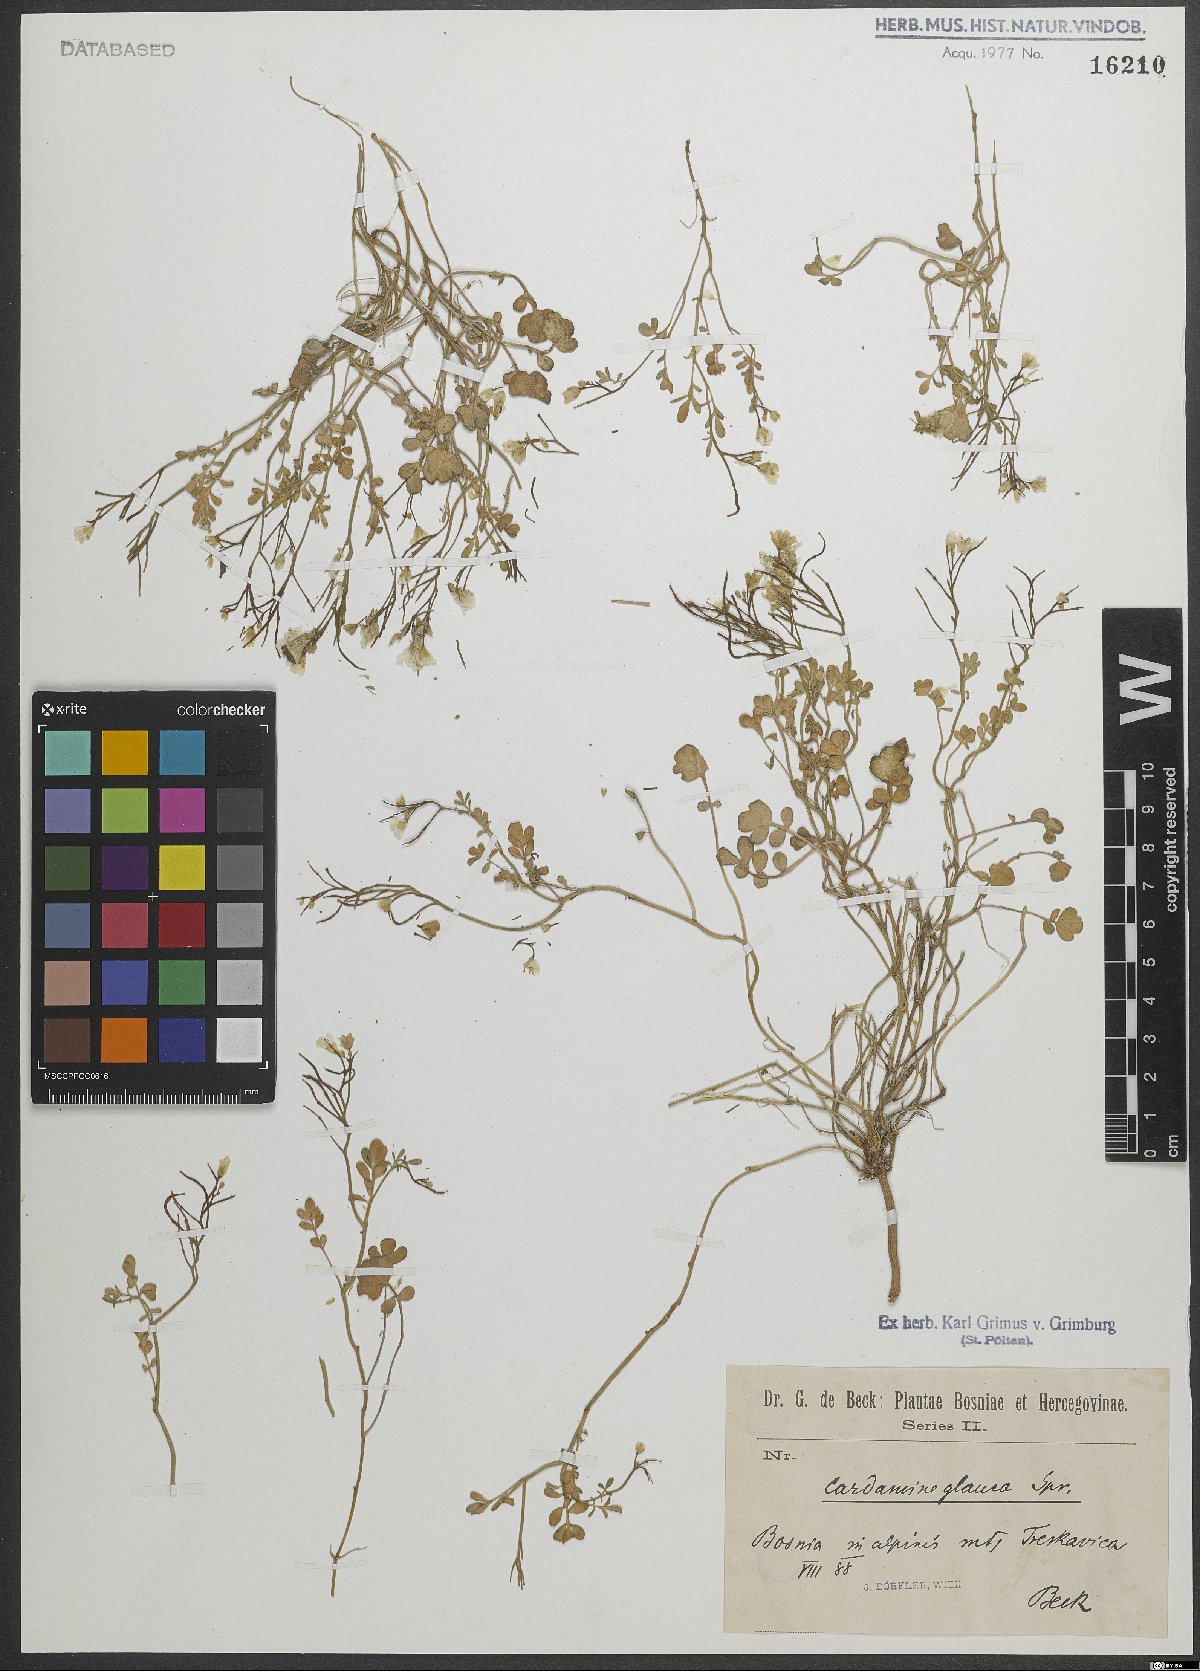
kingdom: Plantae
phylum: Tracheophyta
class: Magnoliopsida
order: Brassicales
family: Brassicaceae
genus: Cardamine
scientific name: Cardamine glauca
